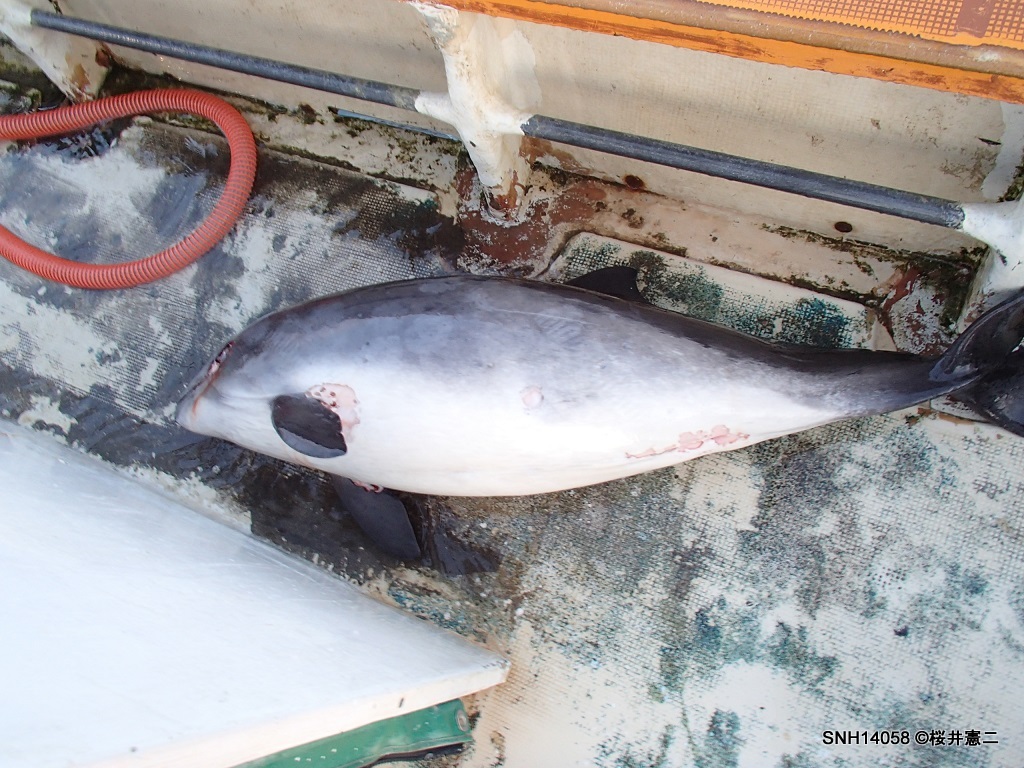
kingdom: Animalia
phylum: Chordata
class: Mammalia
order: Cetacea
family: Phocoenidae
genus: Phocoena
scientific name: Phocoena phocoena
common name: Harbour porpoise
